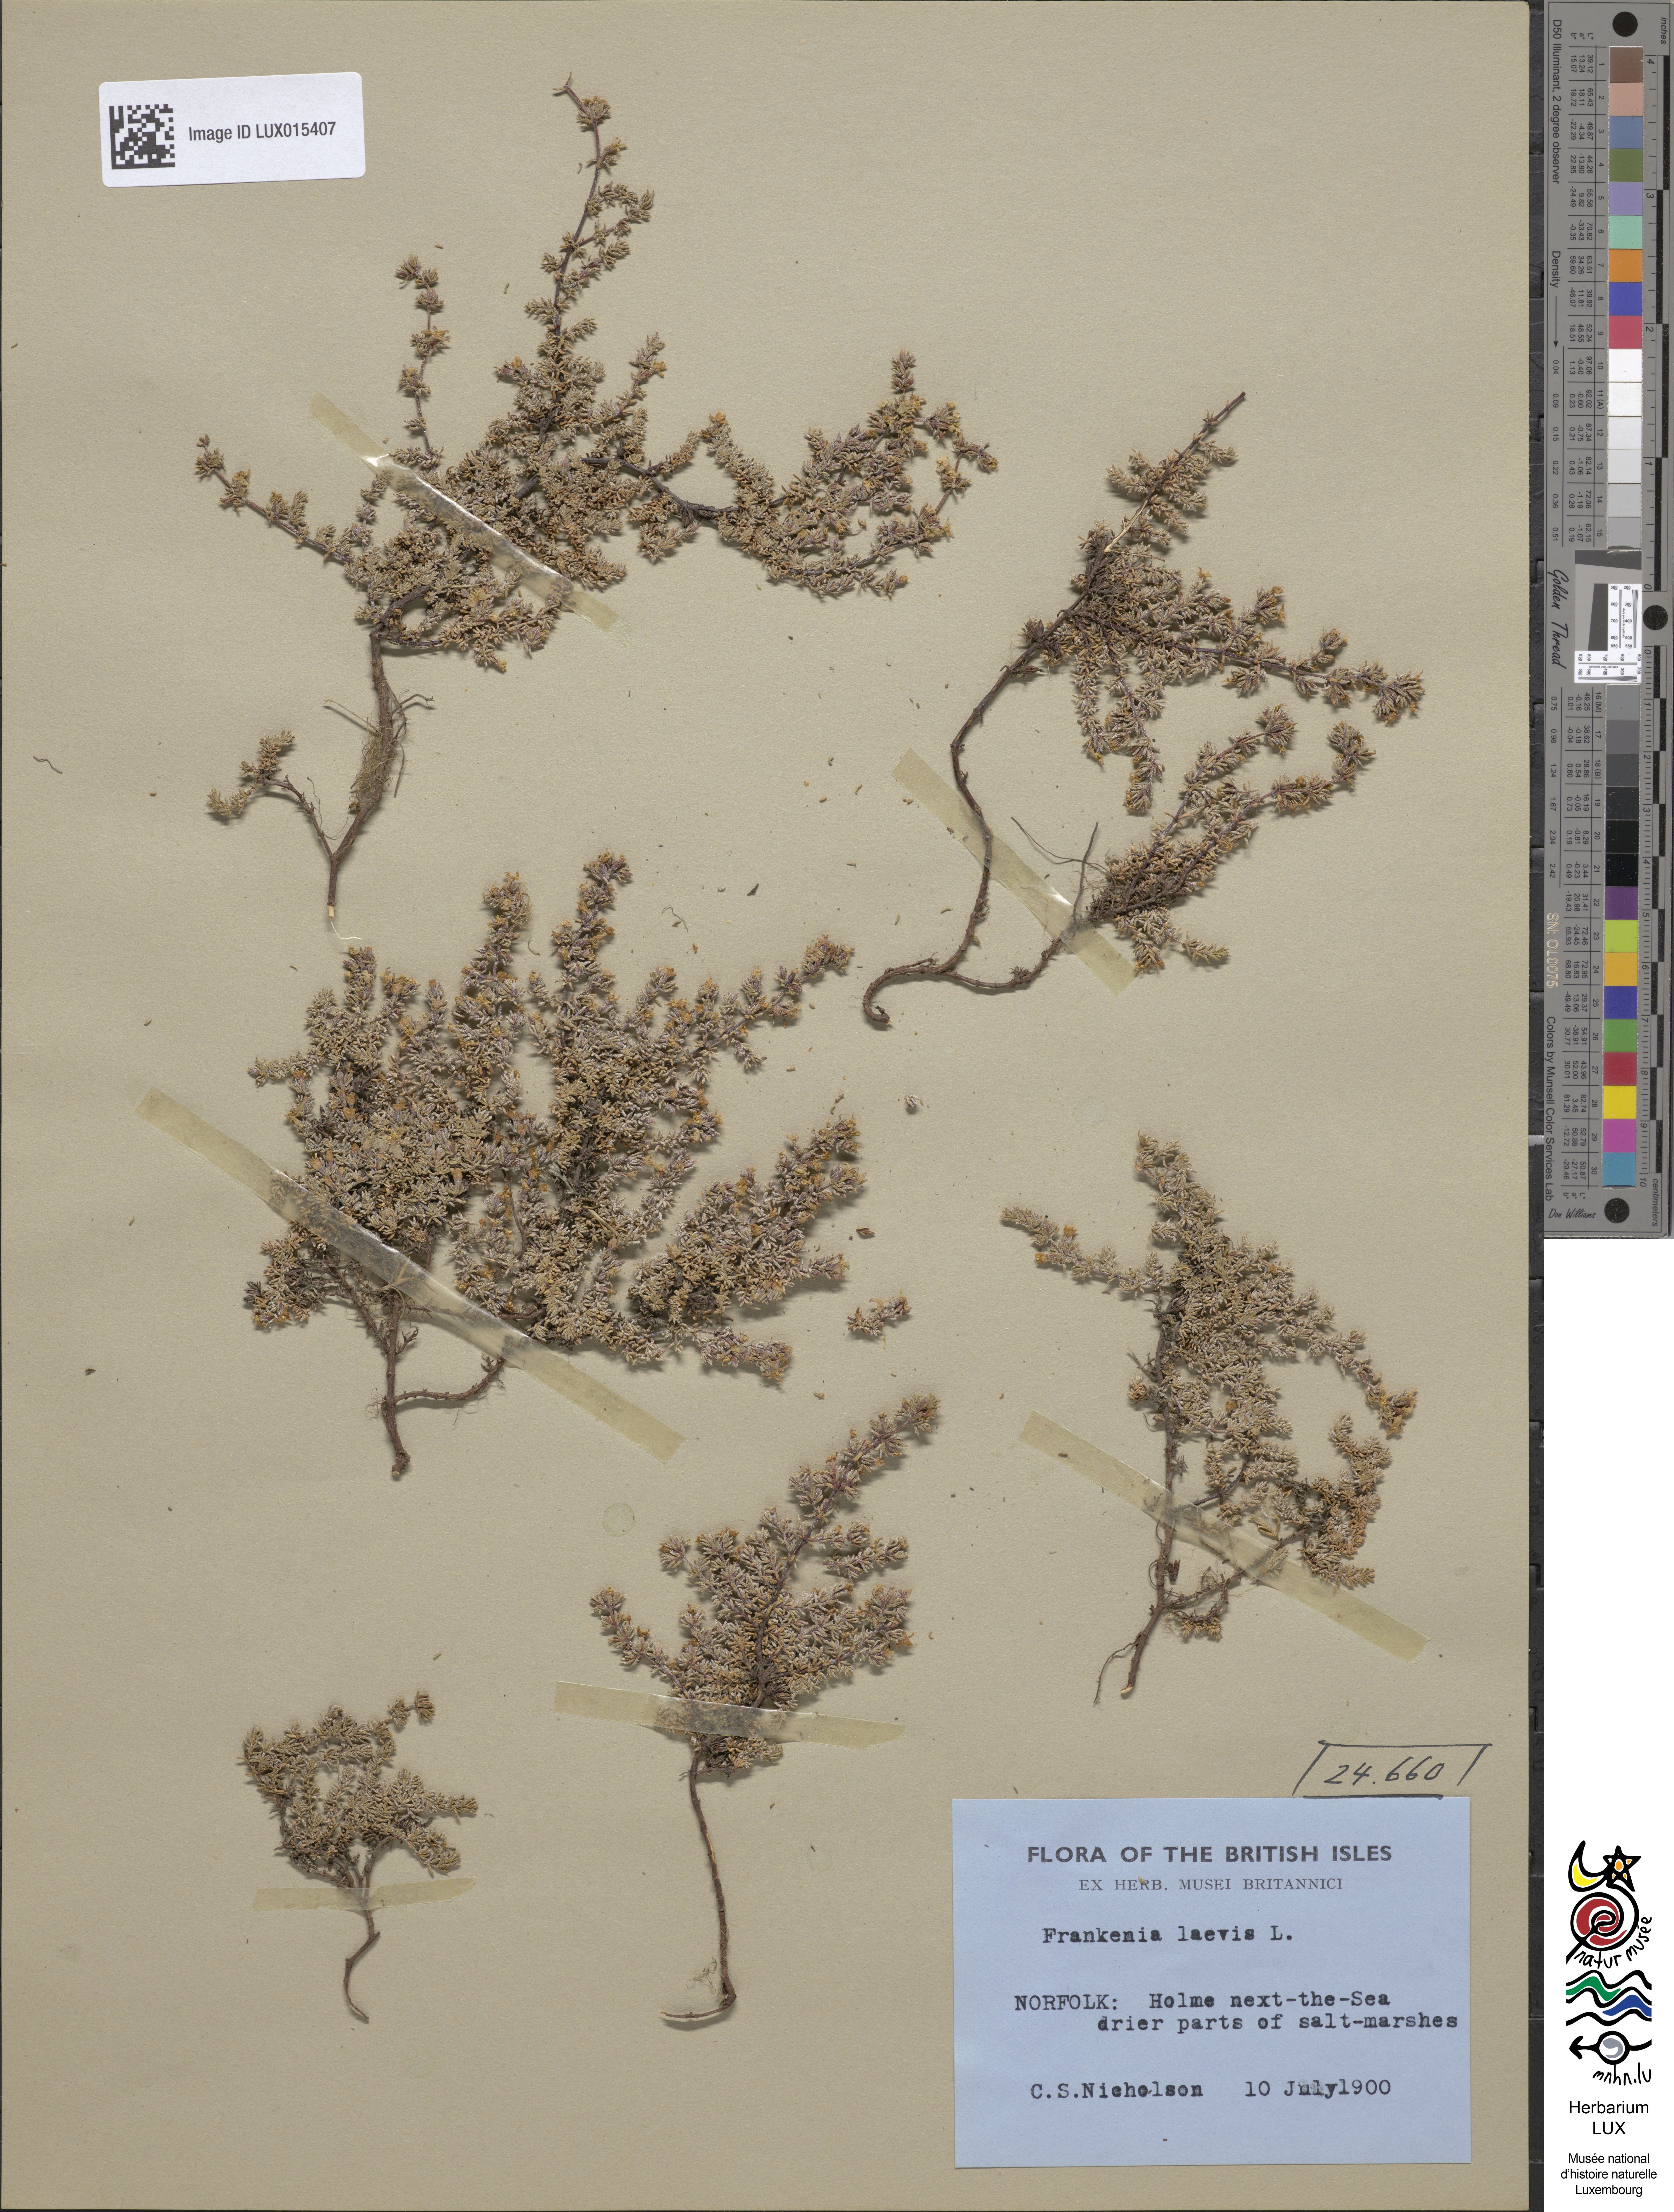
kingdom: Plantae
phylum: Tracheophyta
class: Magnoliopsida
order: Caryophyllales
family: Frankeniaceae
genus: Frankenia
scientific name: Frankenia laevis
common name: Sea-heath
